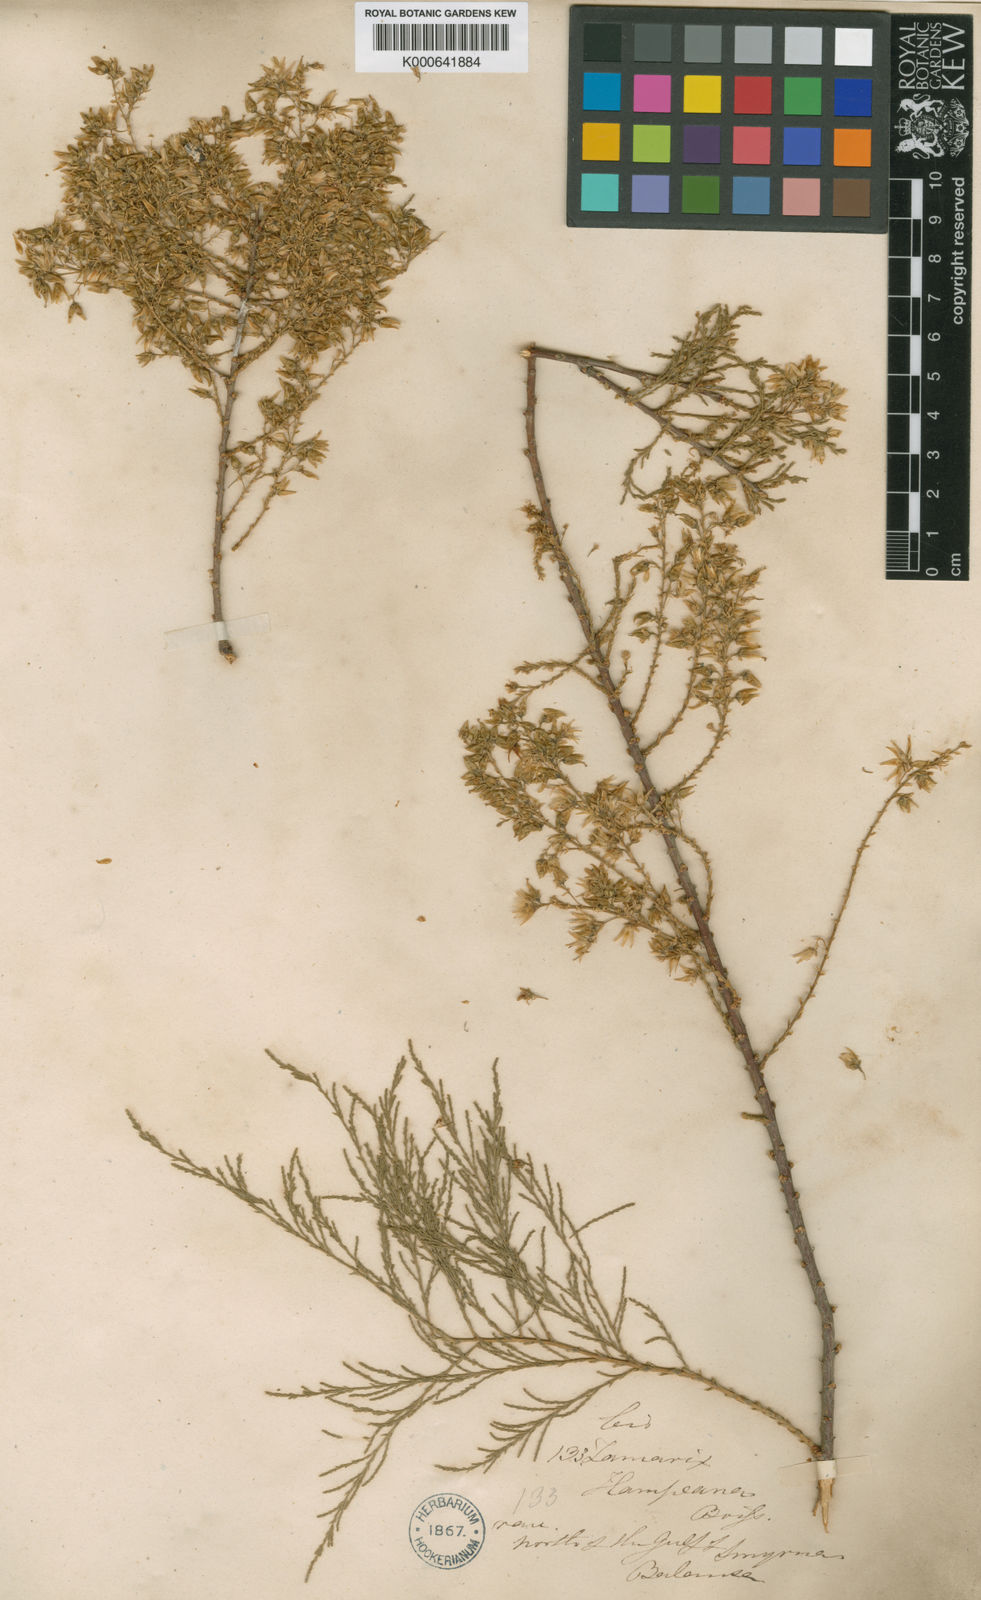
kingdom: Plantae
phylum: Tracheophyta
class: Magnoliopsida
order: Caryophyllales
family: Tamaricaceae
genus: Tamarix
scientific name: Tamarix hampeana
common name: Hampe’s tamarisk
